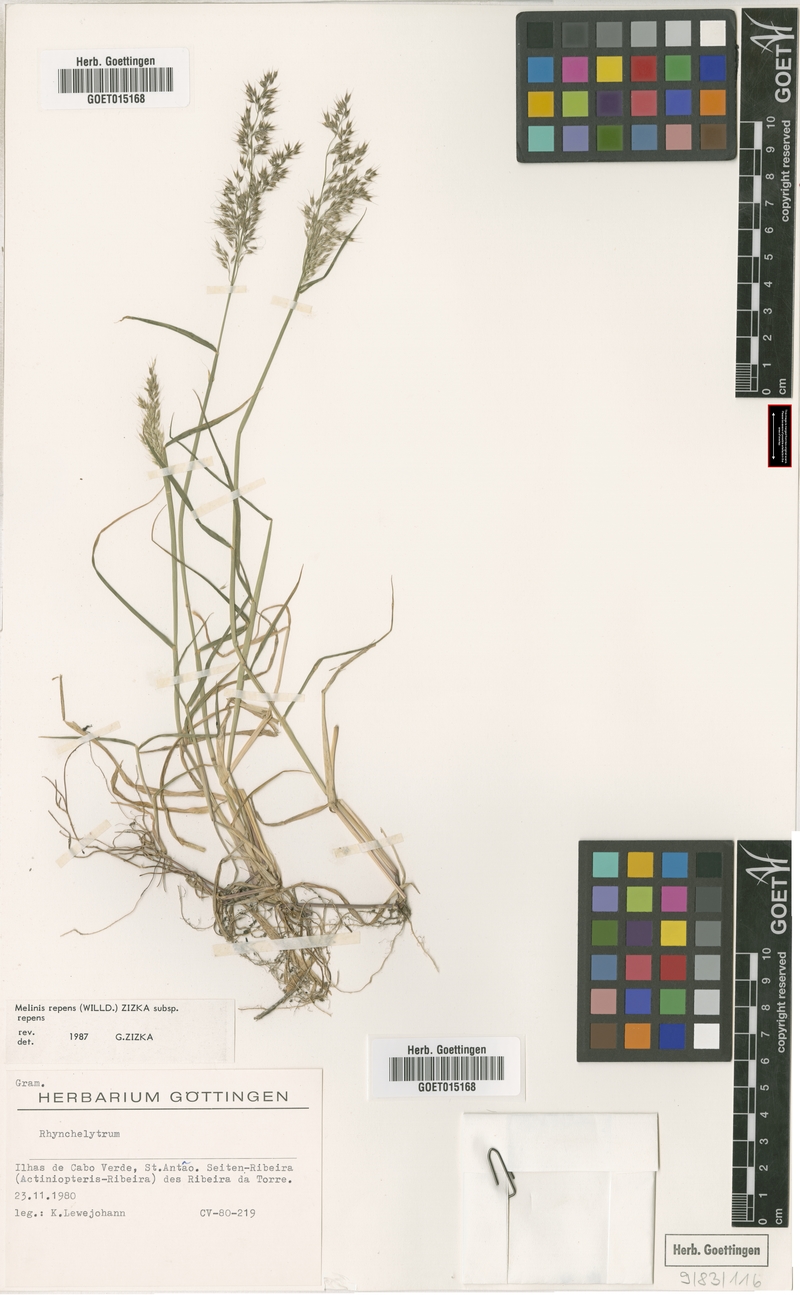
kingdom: Plantae
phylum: Tracheophyta
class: Liliopsida
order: Poales
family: Poaceae
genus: Melinis
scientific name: Melinis repens
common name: Rose natal grass
